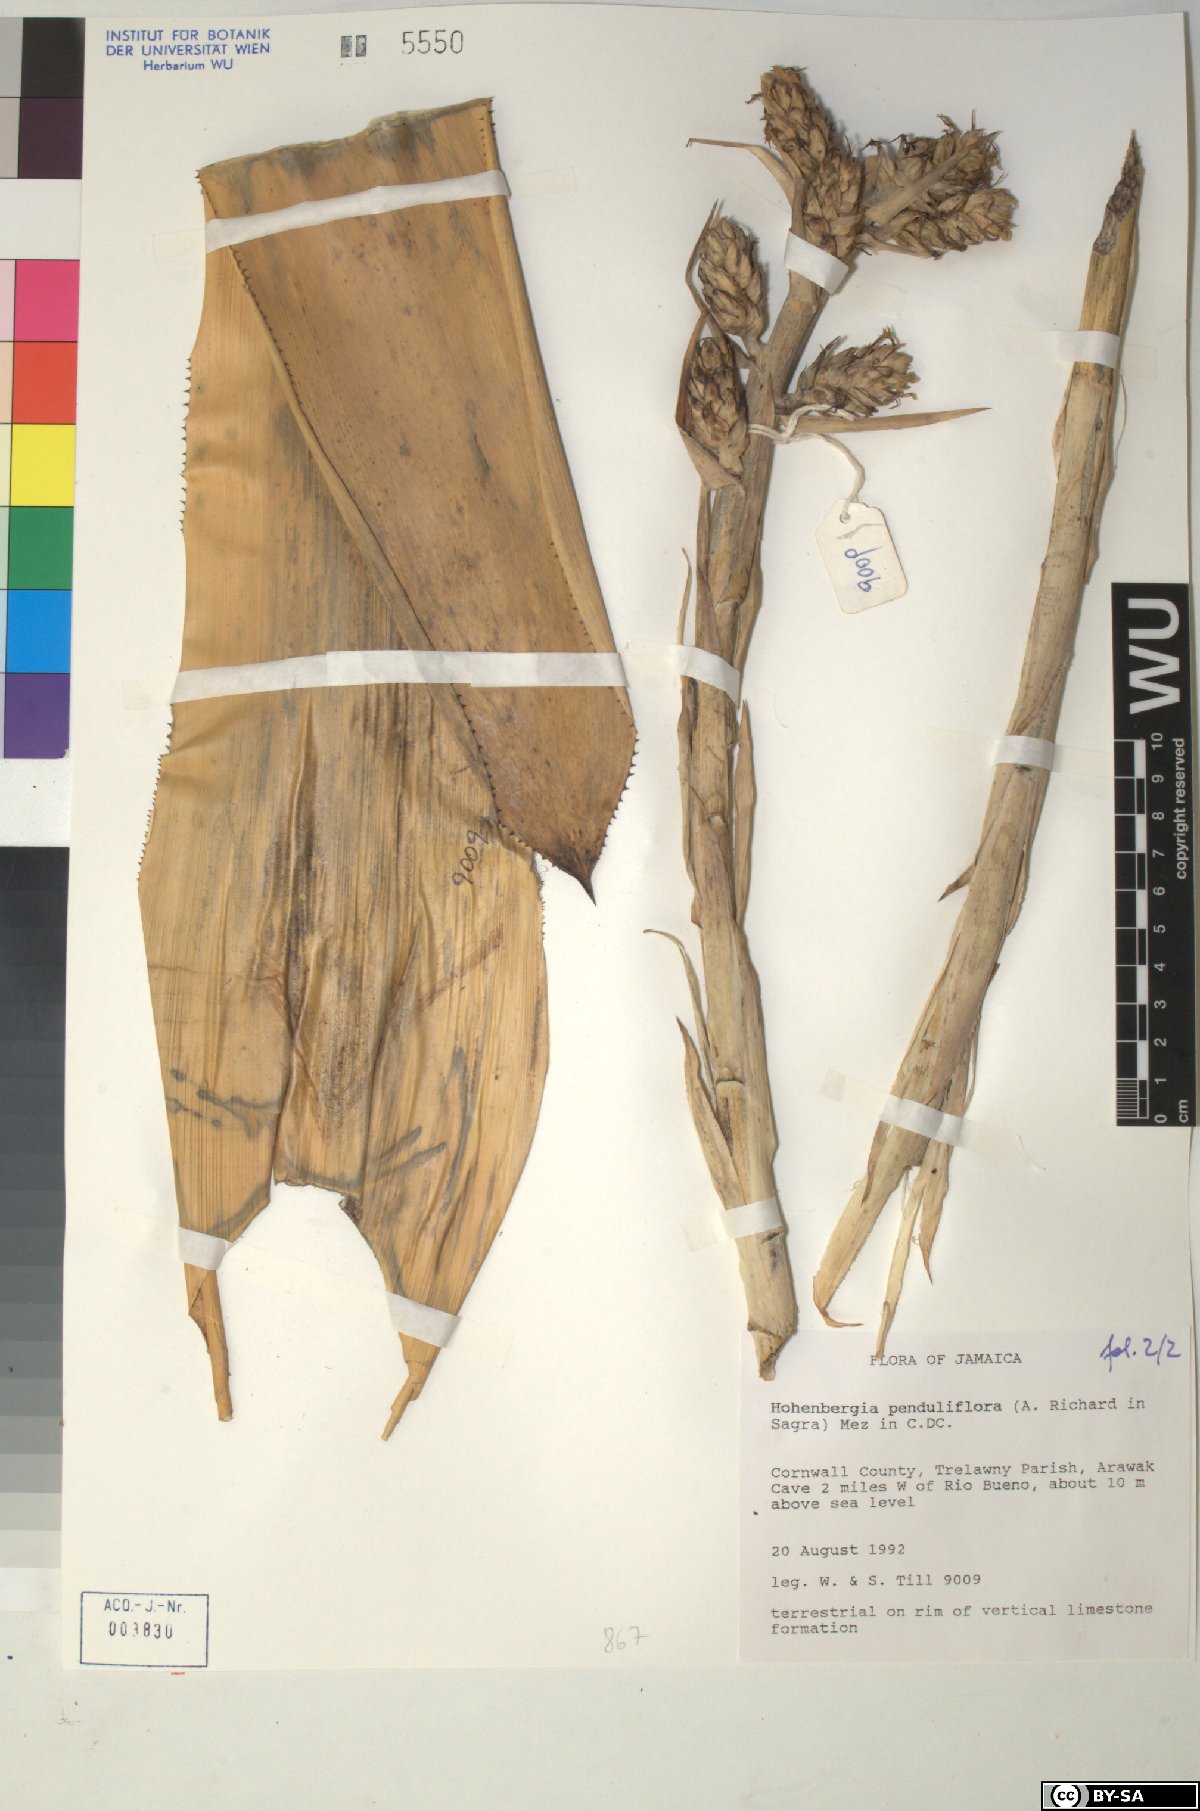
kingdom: Plantae
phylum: Tracheophyta
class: Liliopsida
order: Poales
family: Bromeliaceae
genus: Wittmackia
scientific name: Wittmackia penduliflora
